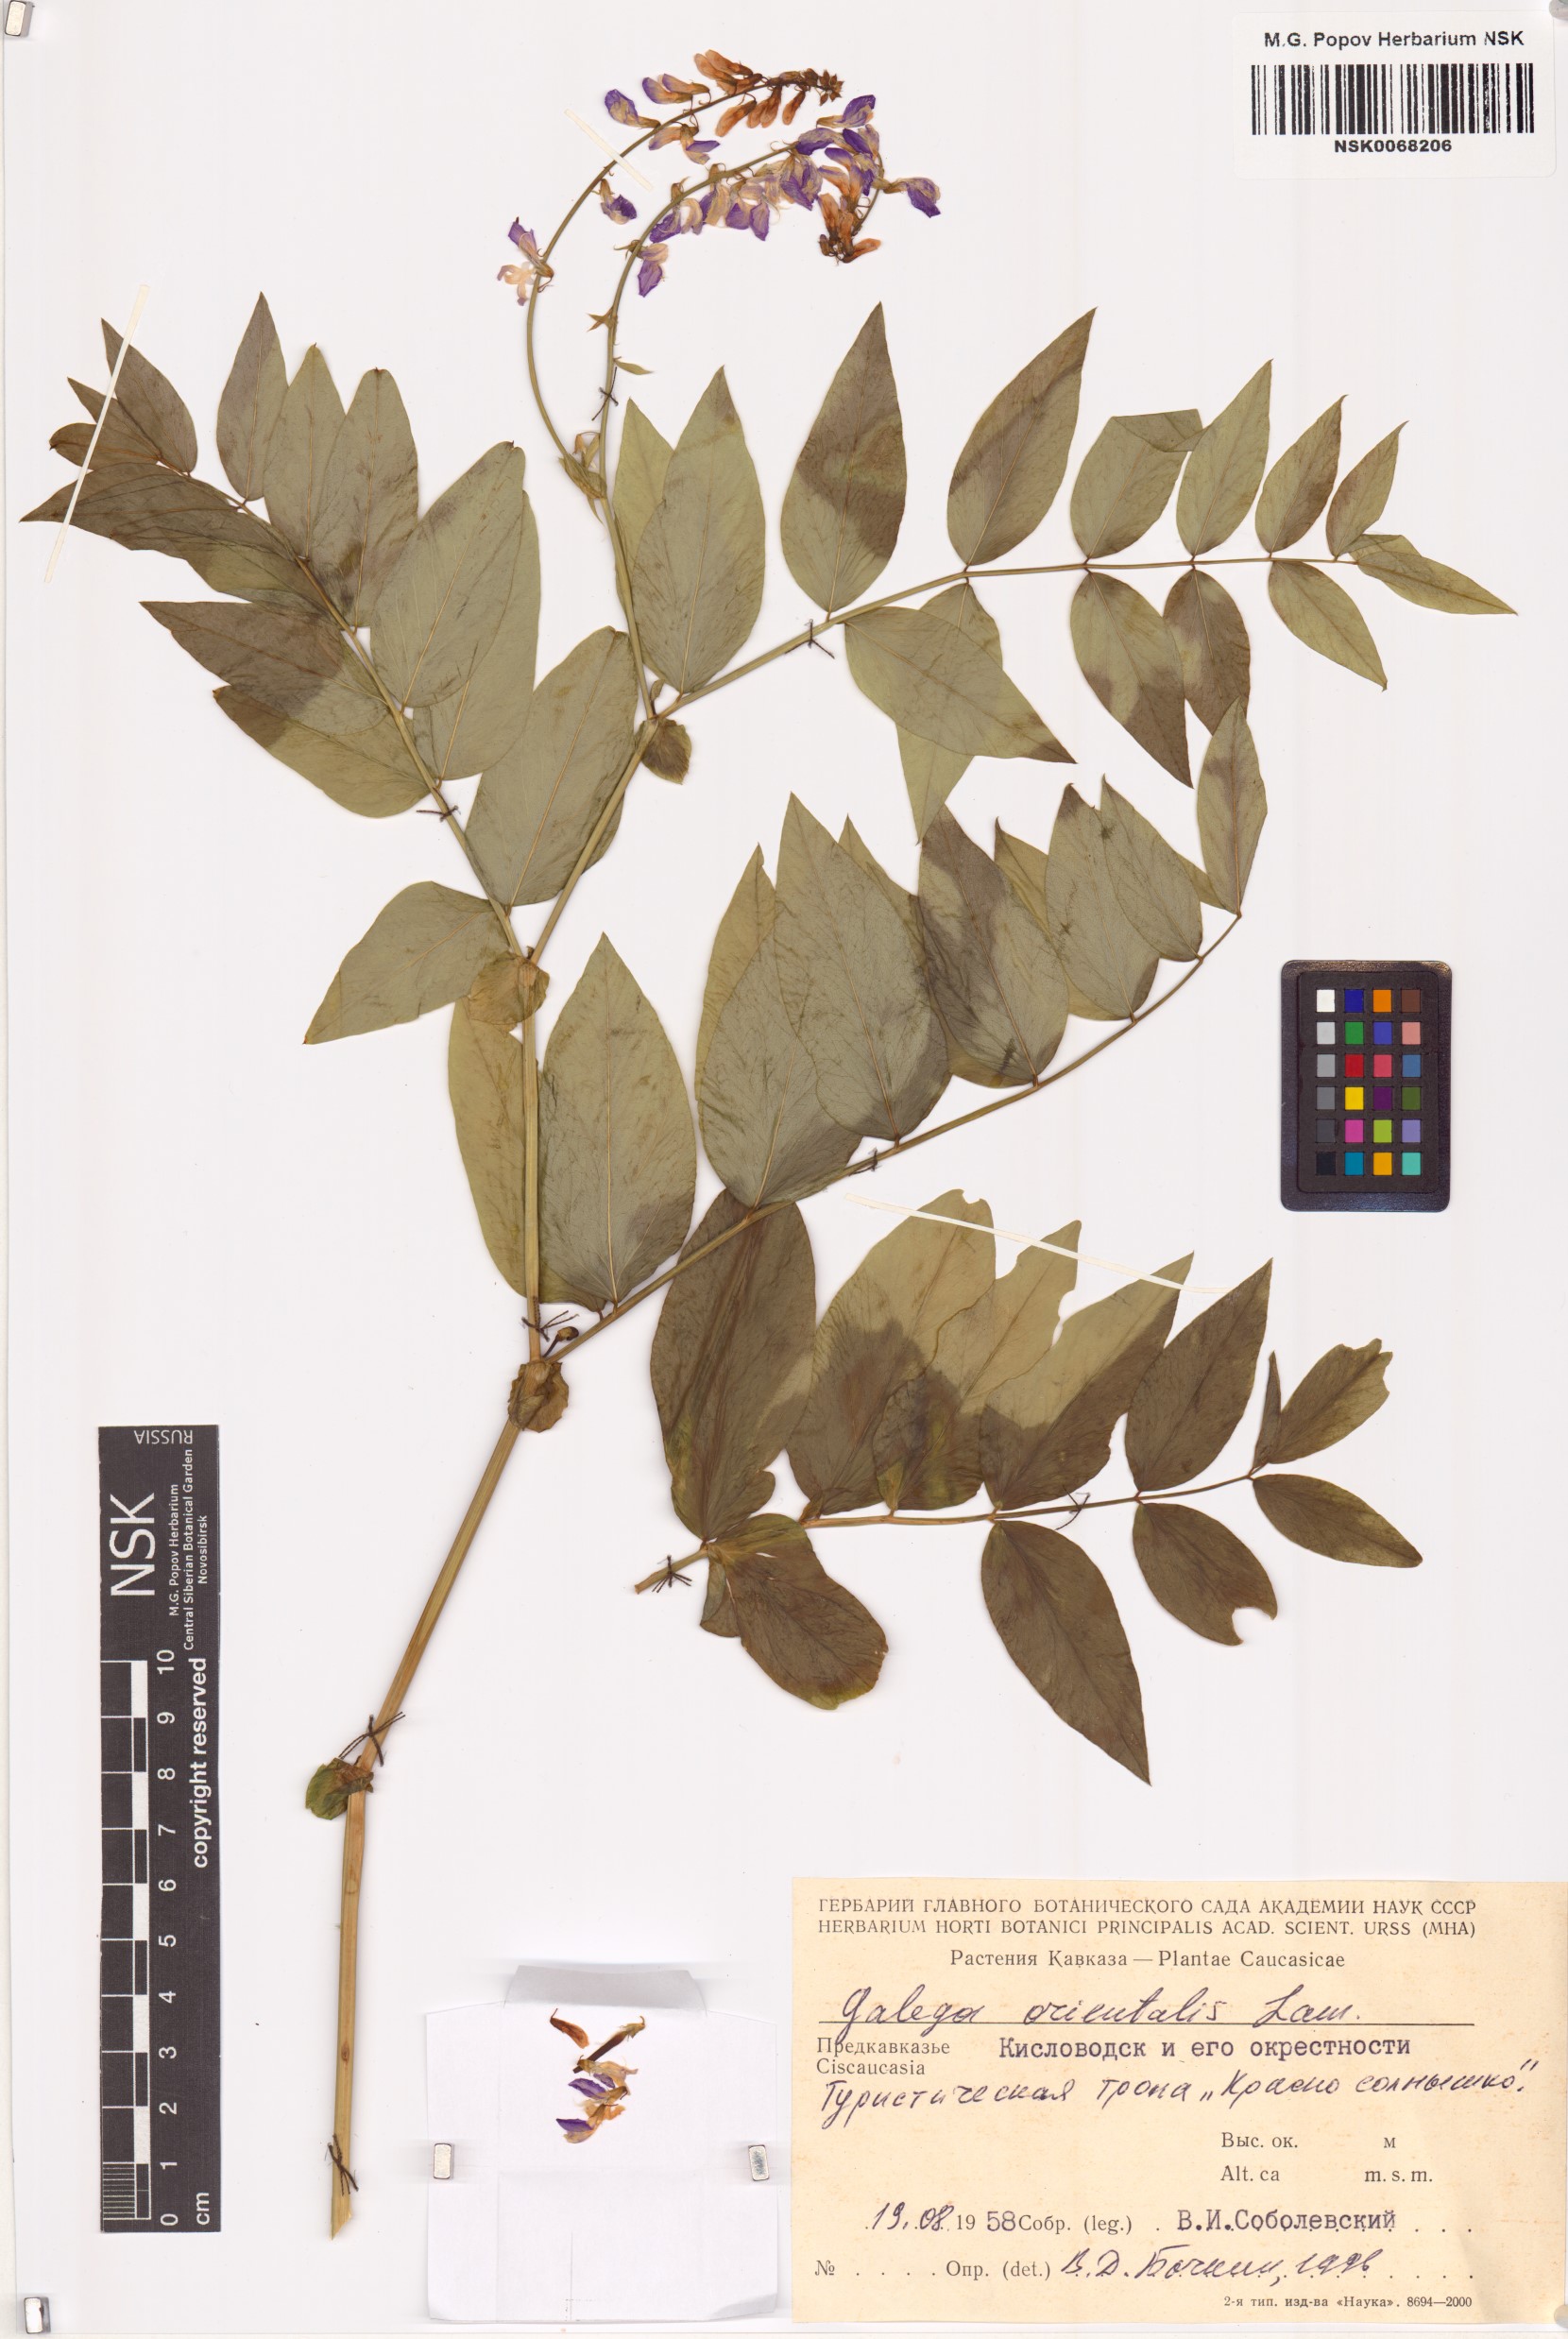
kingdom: Plantae
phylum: Tracheophyta
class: Magnoliopsida
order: Fabales
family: Fabaceae
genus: Galega
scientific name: Galega orientalis
